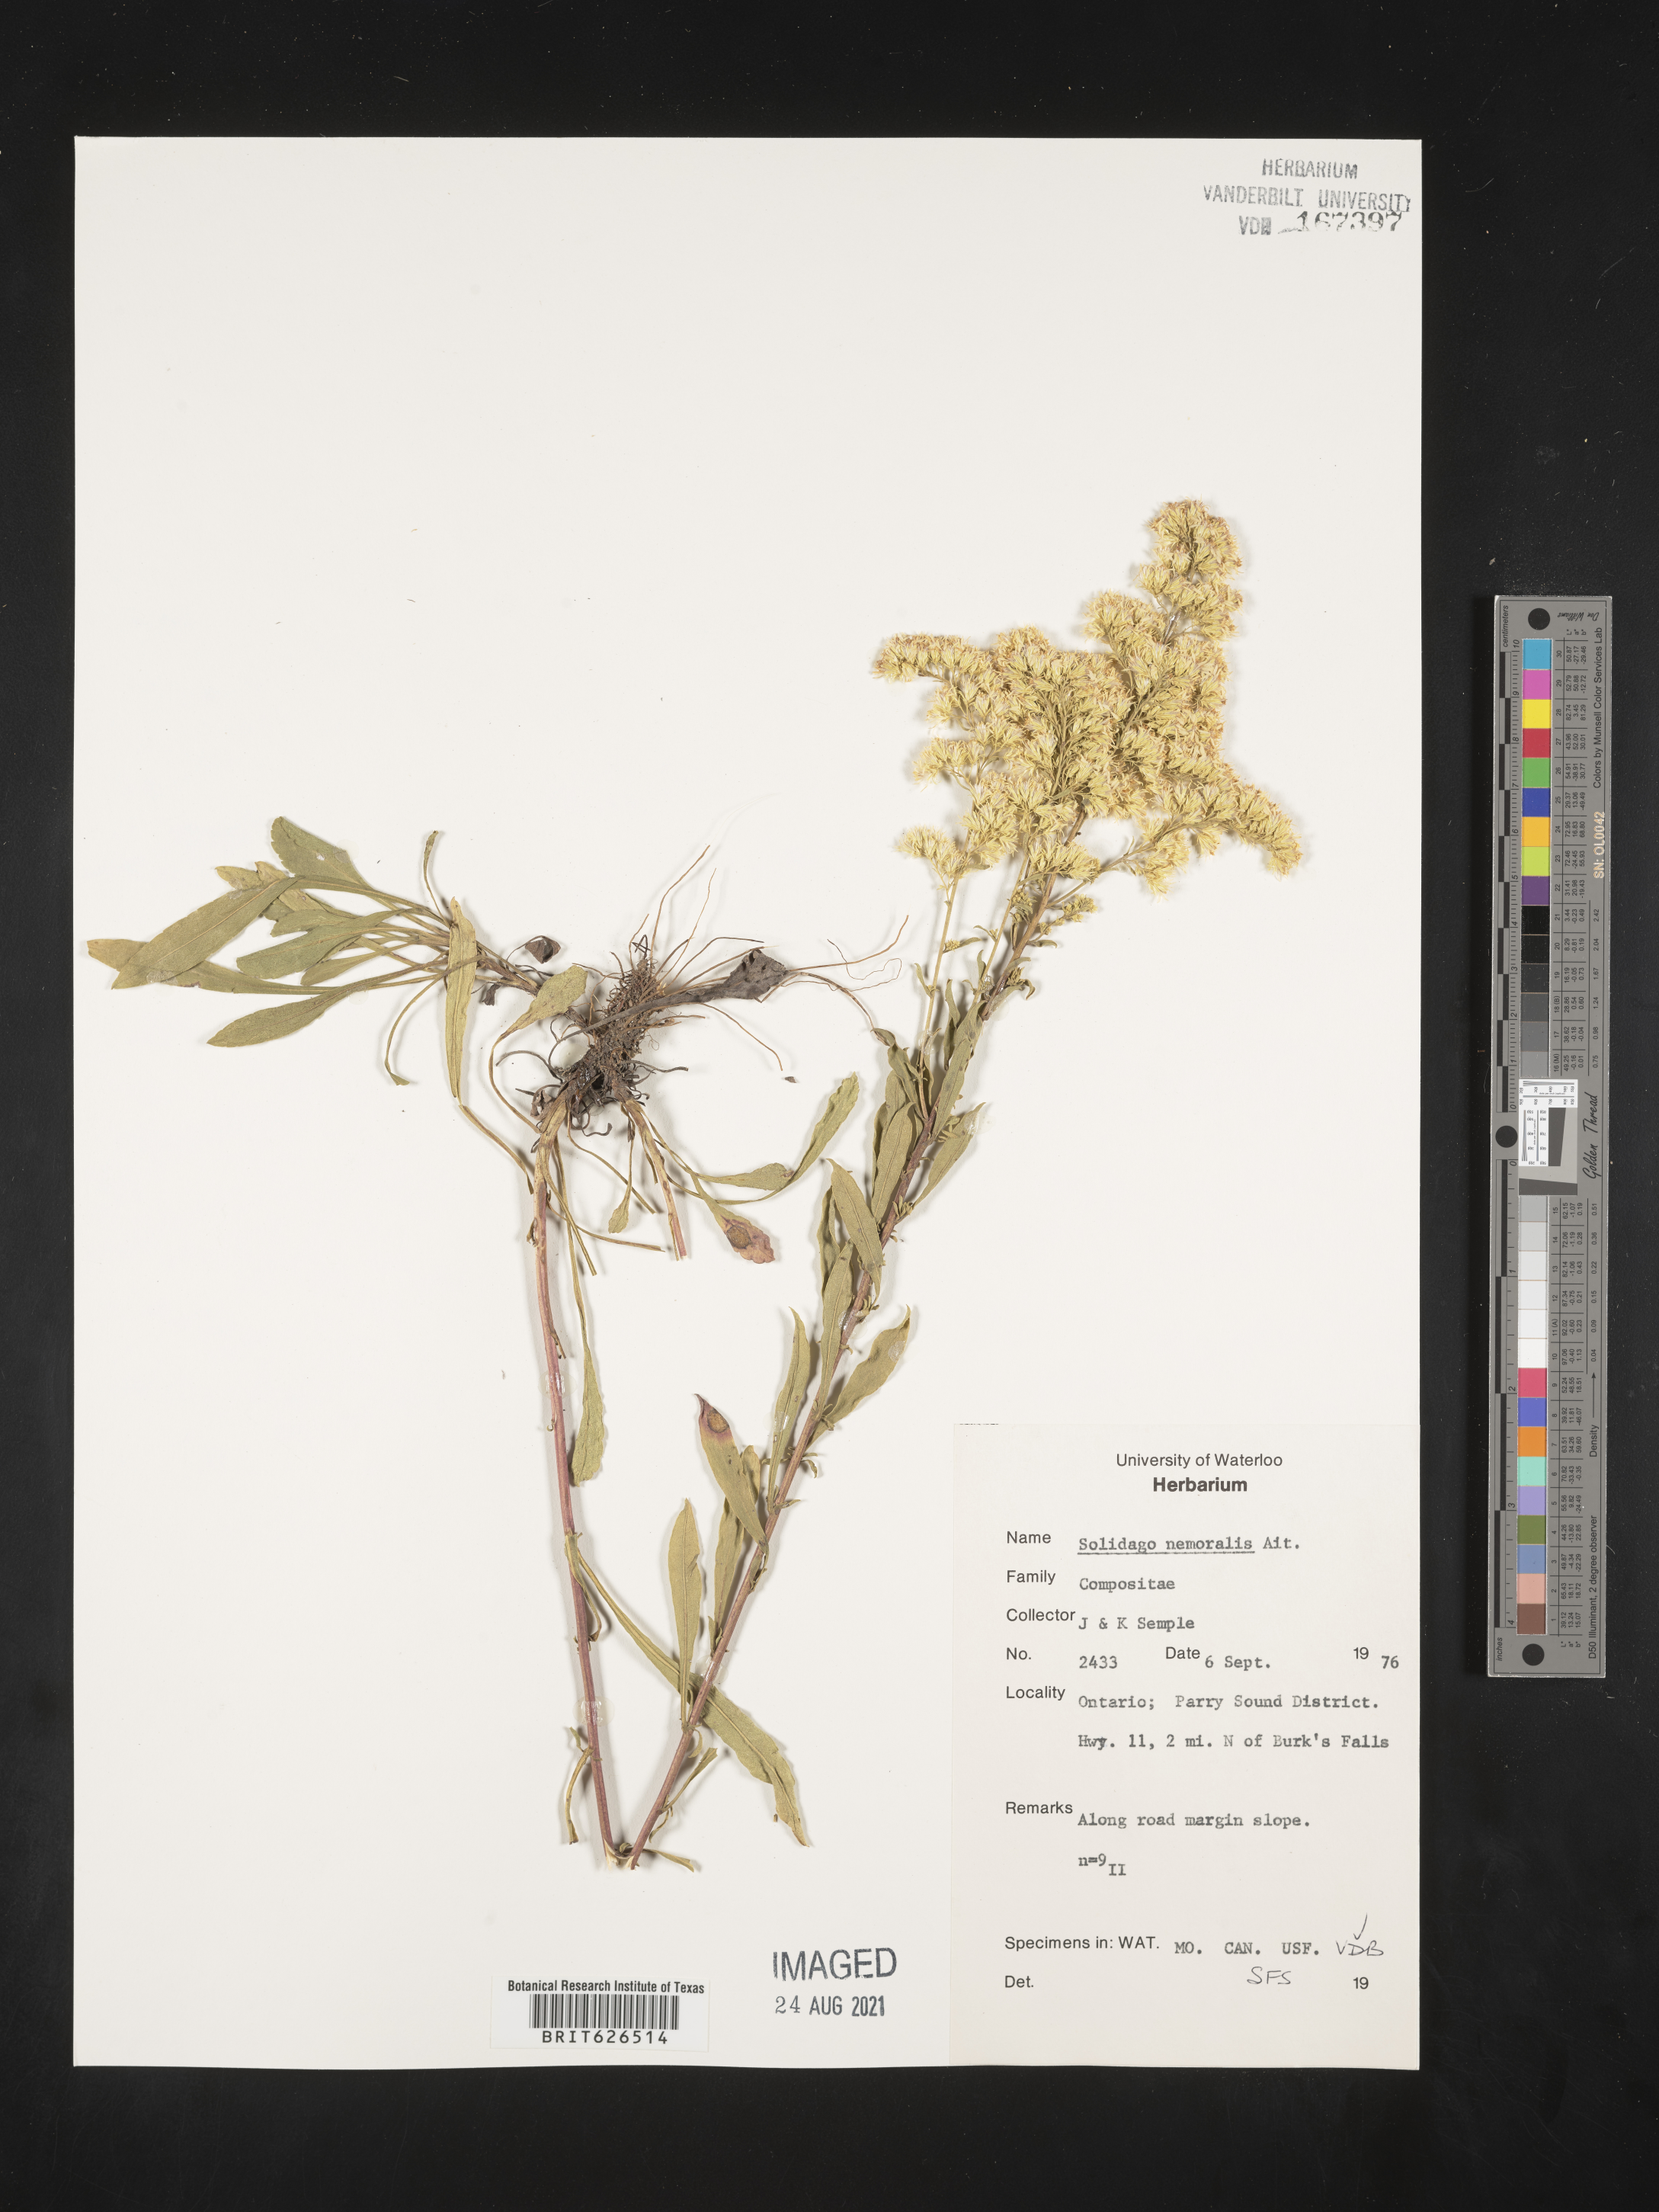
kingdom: Plantae
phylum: Tracheophyta
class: Magnoliopsida
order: Asterales
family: Asteraceae
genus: Solidago
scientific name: Solidago nemoralis
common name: Grey goldenrod
